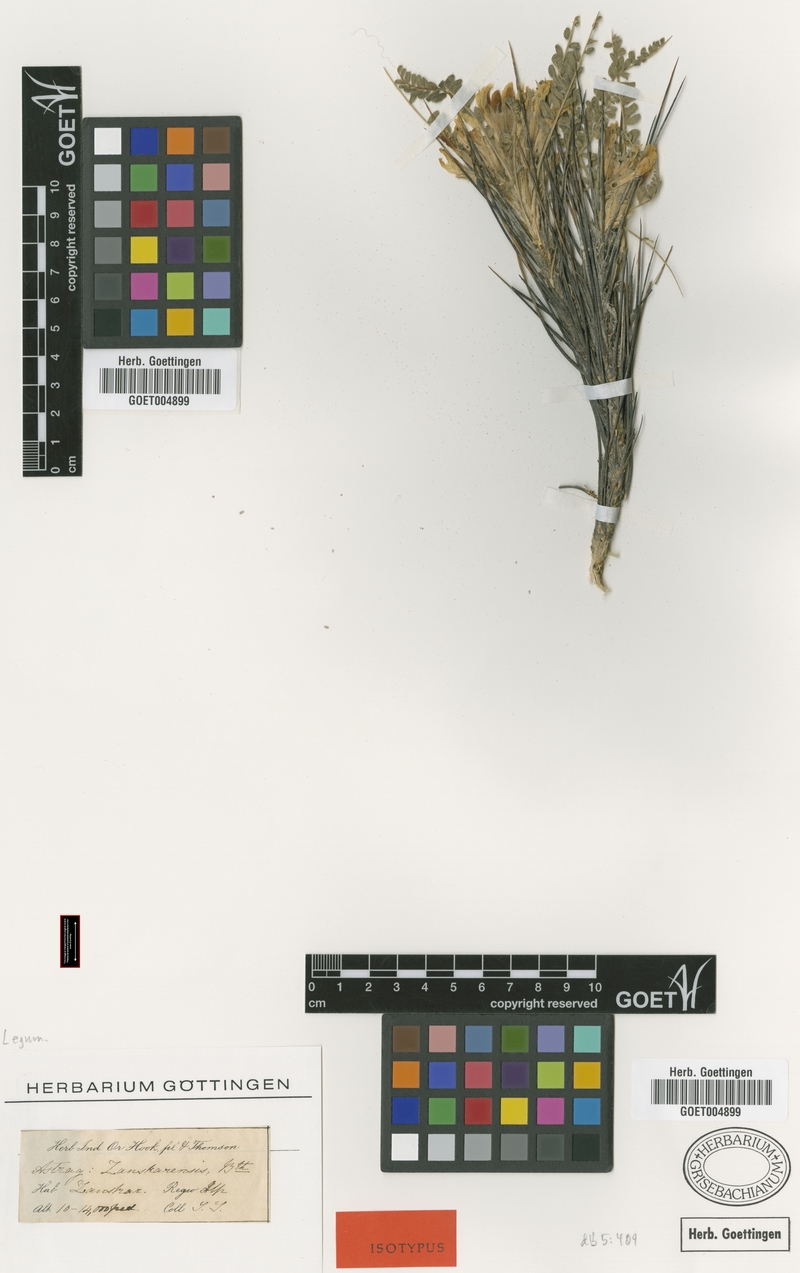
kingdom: Plantae
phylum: Tracheophyta
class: Magnoliopsida
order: Fabales
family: Fabaceae
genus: Astragalus
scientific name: Astragalus zanskarensis
